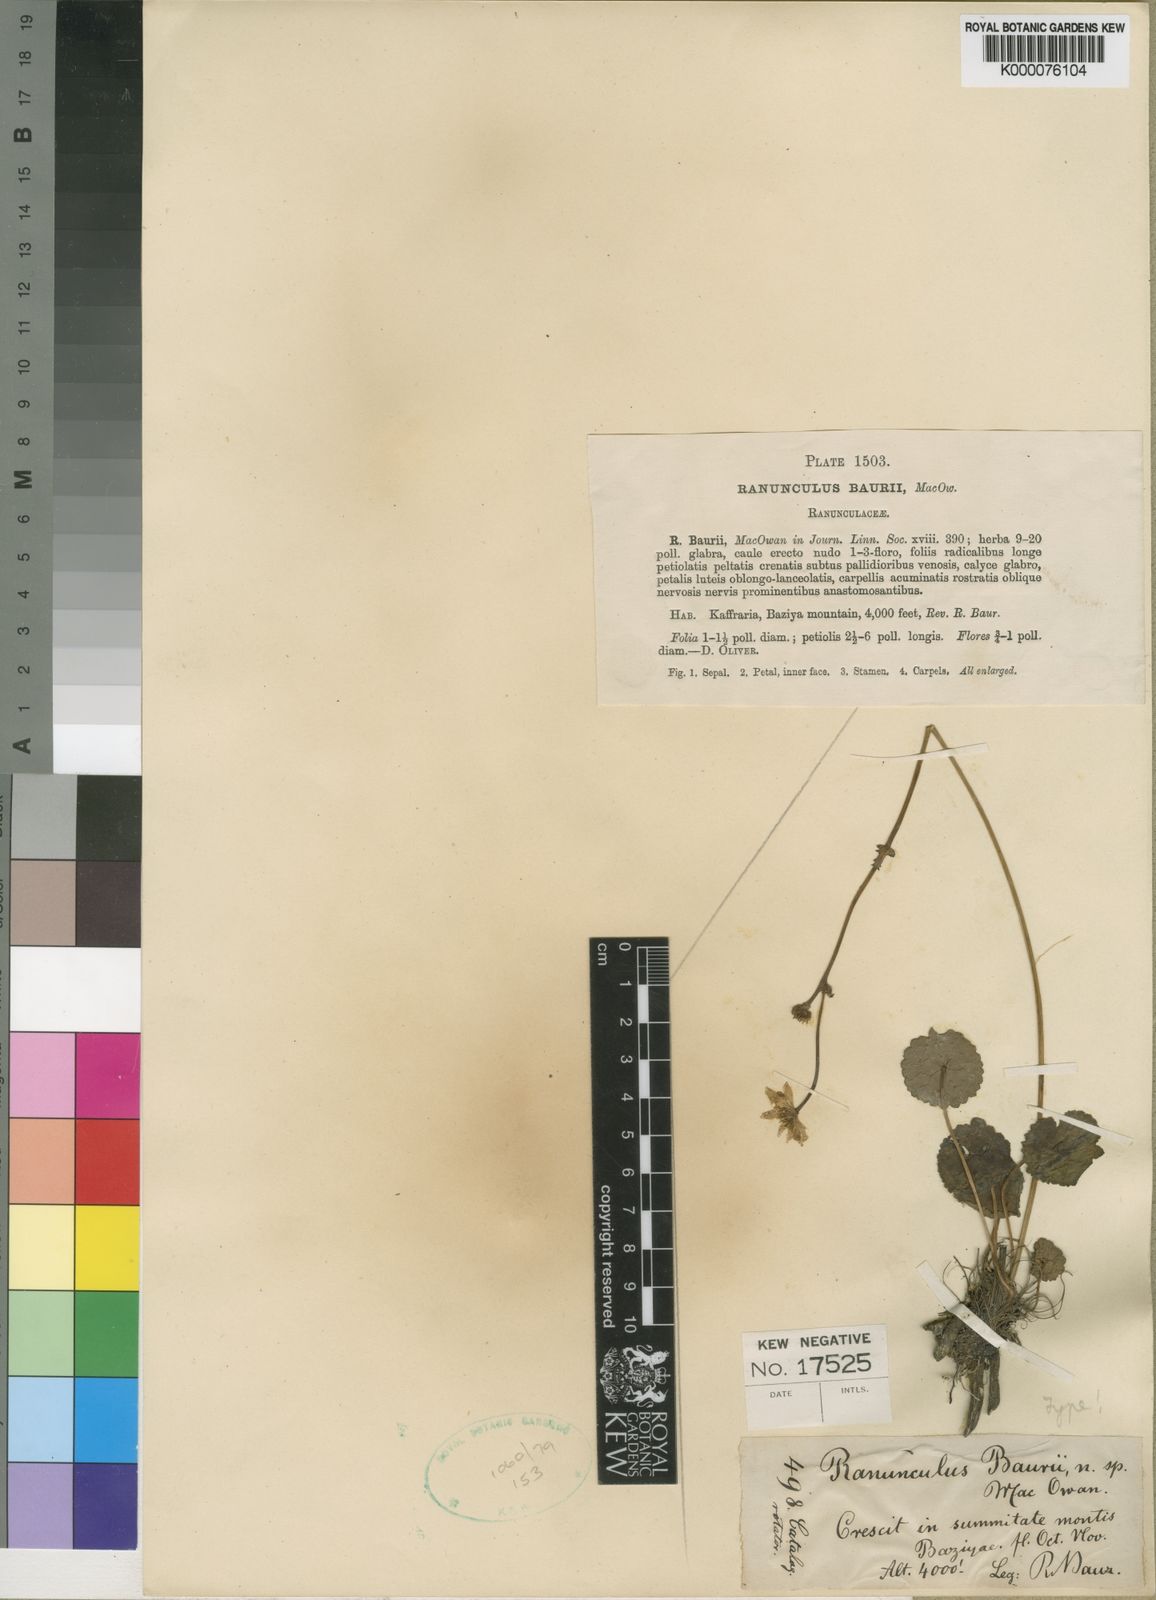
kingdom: Plantae
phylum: Tracheophyta
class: Magnoliopsida
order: Ranunculales
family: Ranunculaceae
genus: Peltocalathos
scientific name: Peltocalathos baurii
